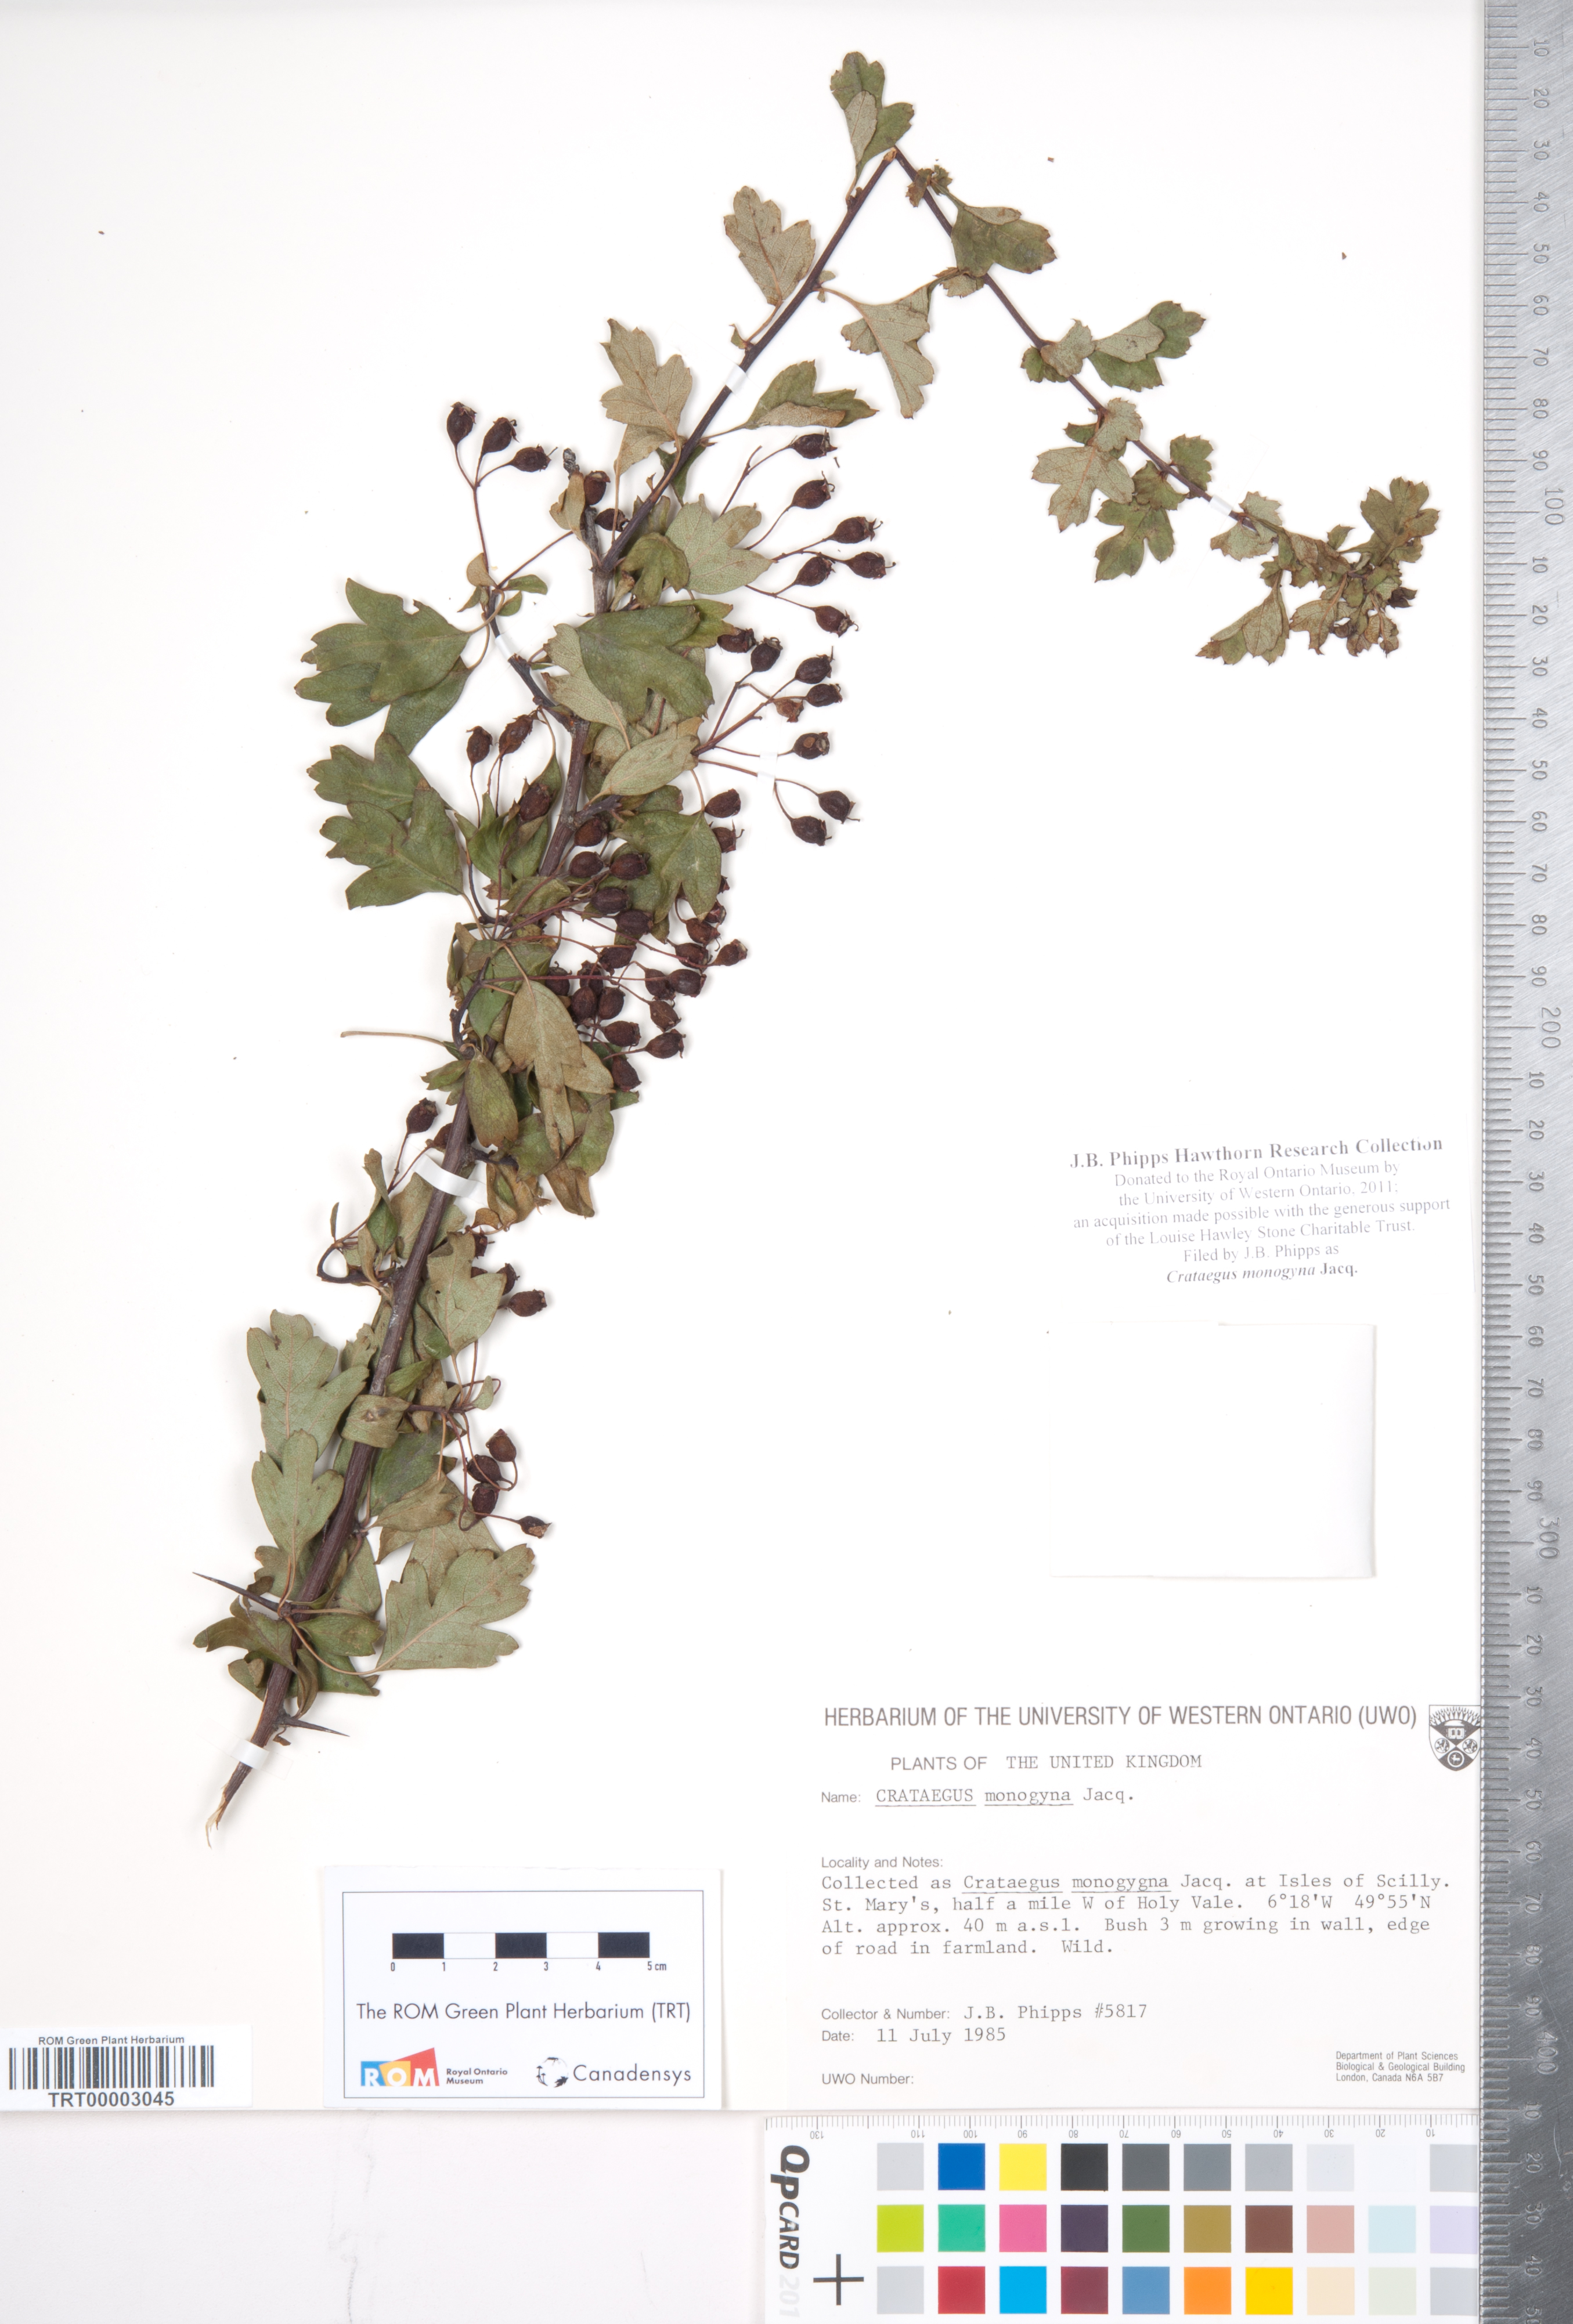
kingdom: Plantae
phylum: Tracheophyta
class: Magnoliopsida
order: Rosales
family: Rosaceae
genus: Crataegus
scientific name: Crataegus monogyna
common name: Hawthorn
